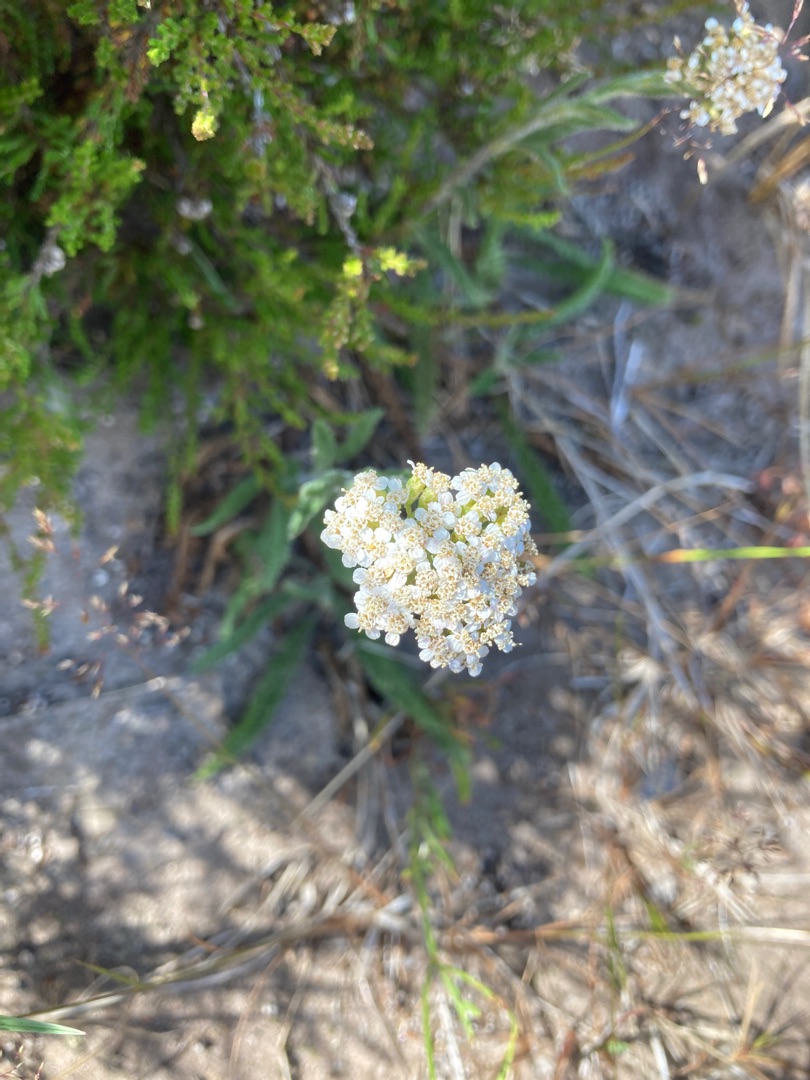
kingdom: Plantae
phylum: Tracheophyta
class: Magnoliopsida
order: Asterales
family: Asteraceae
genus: Achillea
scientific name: Achillea millefolium
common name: Almindelig røllike
